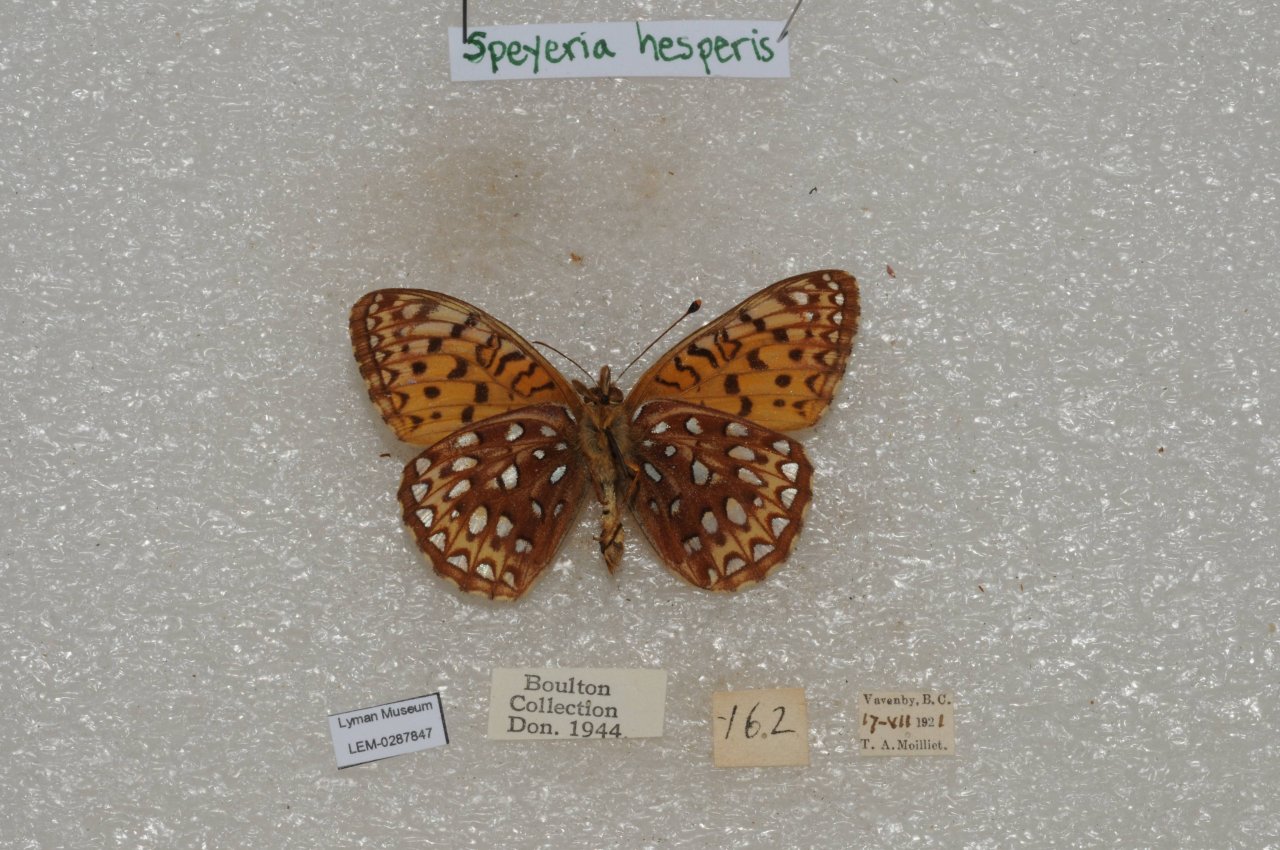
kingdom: Animalia
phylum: Arthropoda
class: Insecta
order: Lepidoptera
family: Nymphalidae
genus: Speyeria
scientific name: Speyeria atlantis
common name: Northwestern Fritillary
